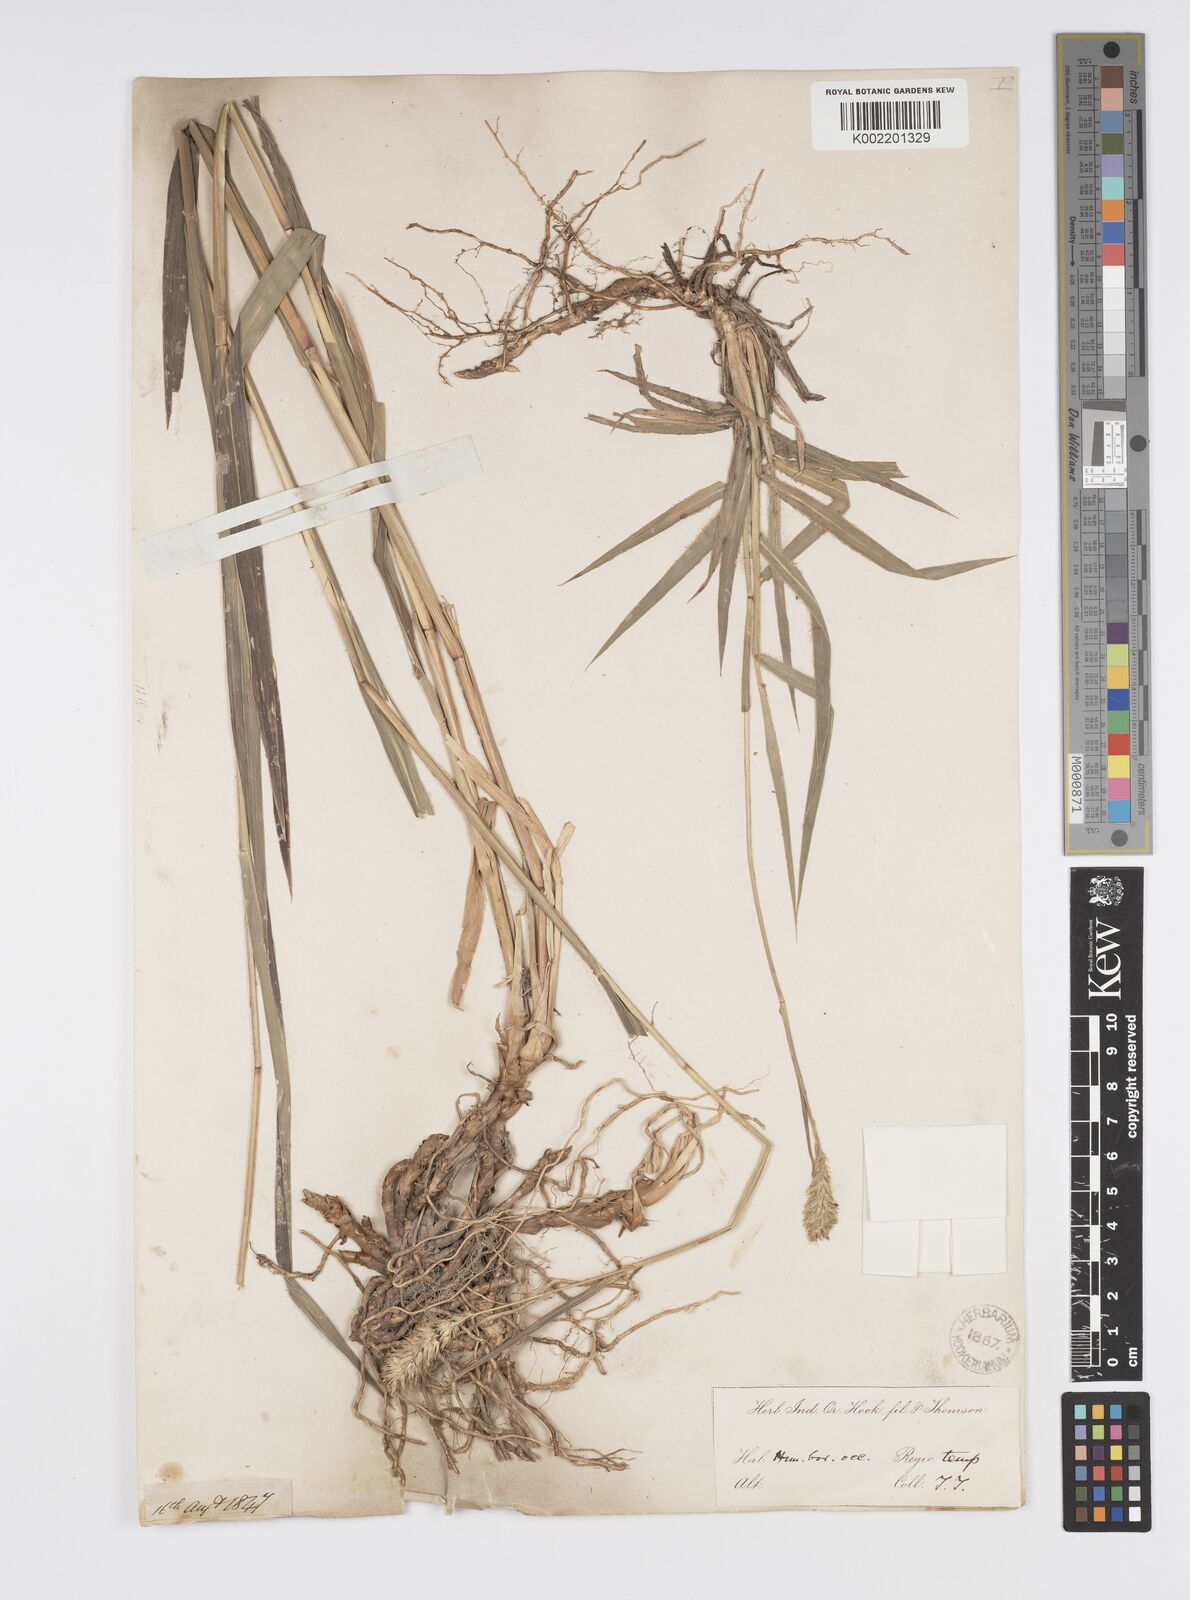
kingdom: Plantae
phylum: Tracheophyta
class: Liliopsida
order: Poales
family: Poaceae
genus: Cenchrus
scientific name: Cenchrus lanatus
